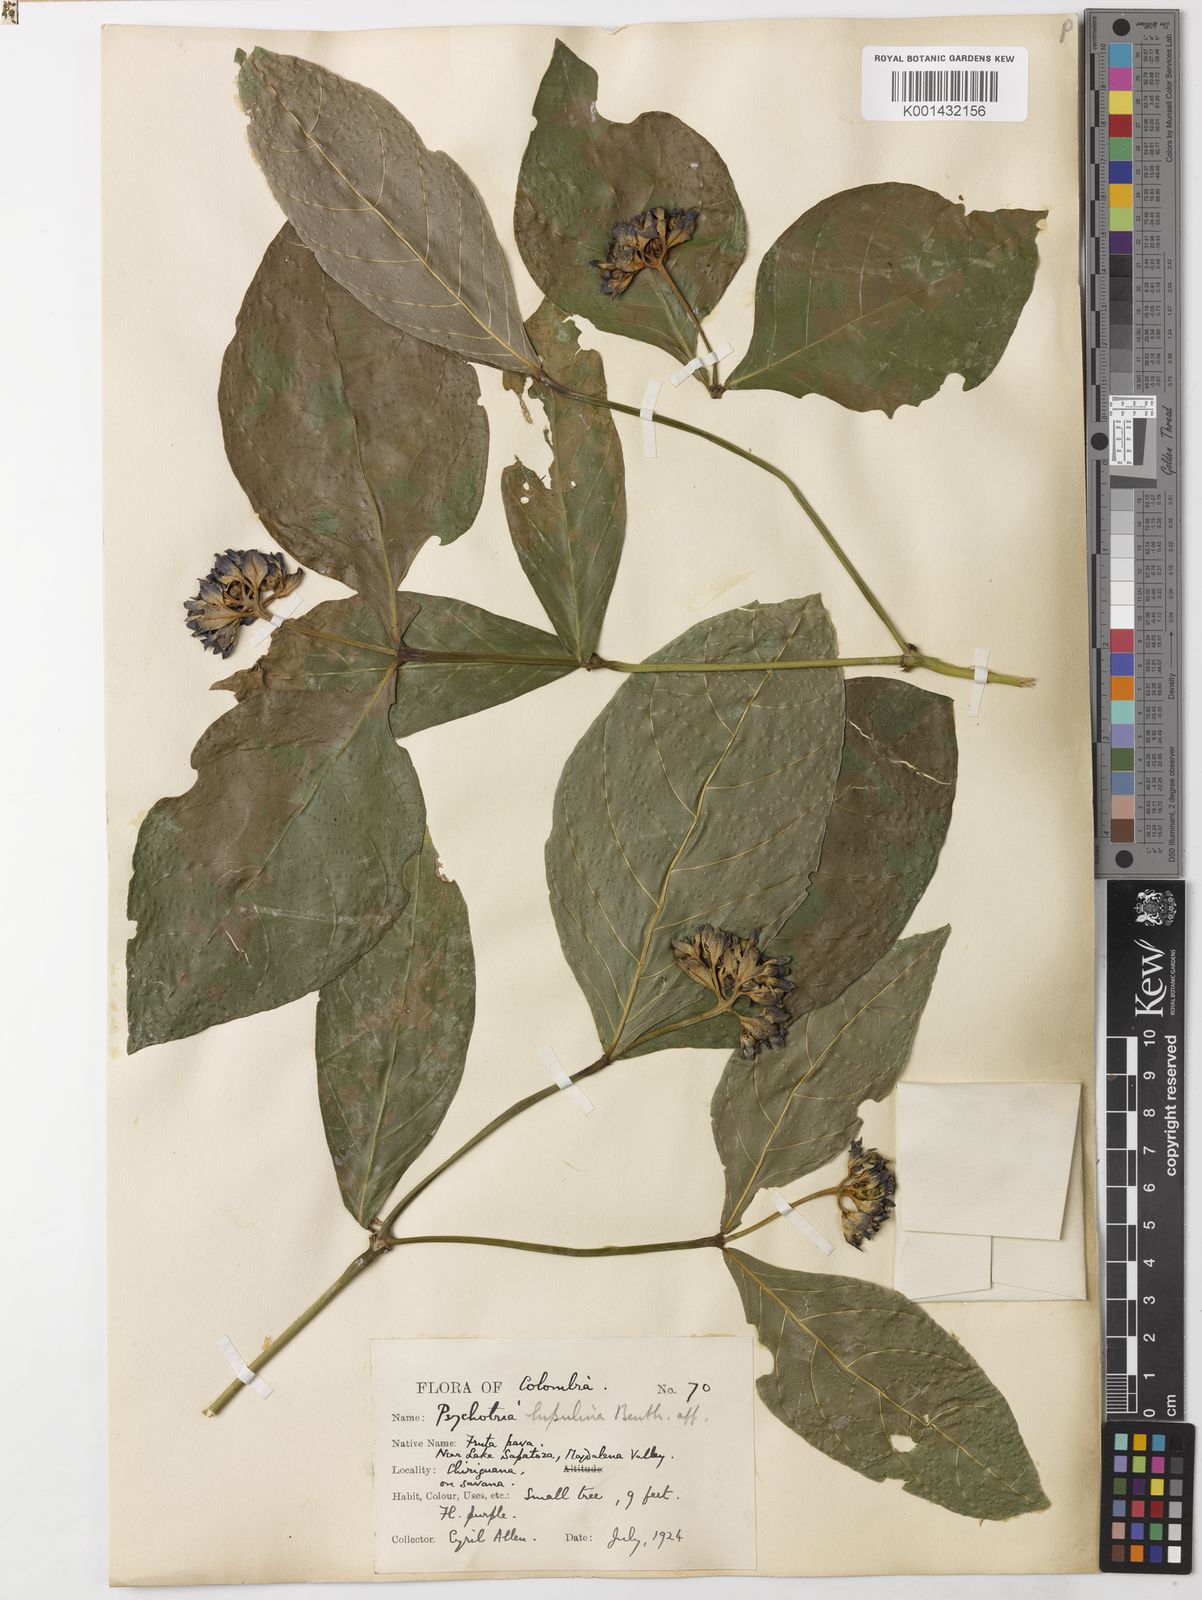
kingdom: Plantae
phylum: Tracheophyta
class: Magnoliopsida
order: Gentianales
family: Rubiaceae
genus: Palicourea
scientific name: Palicourea justiciifolia
